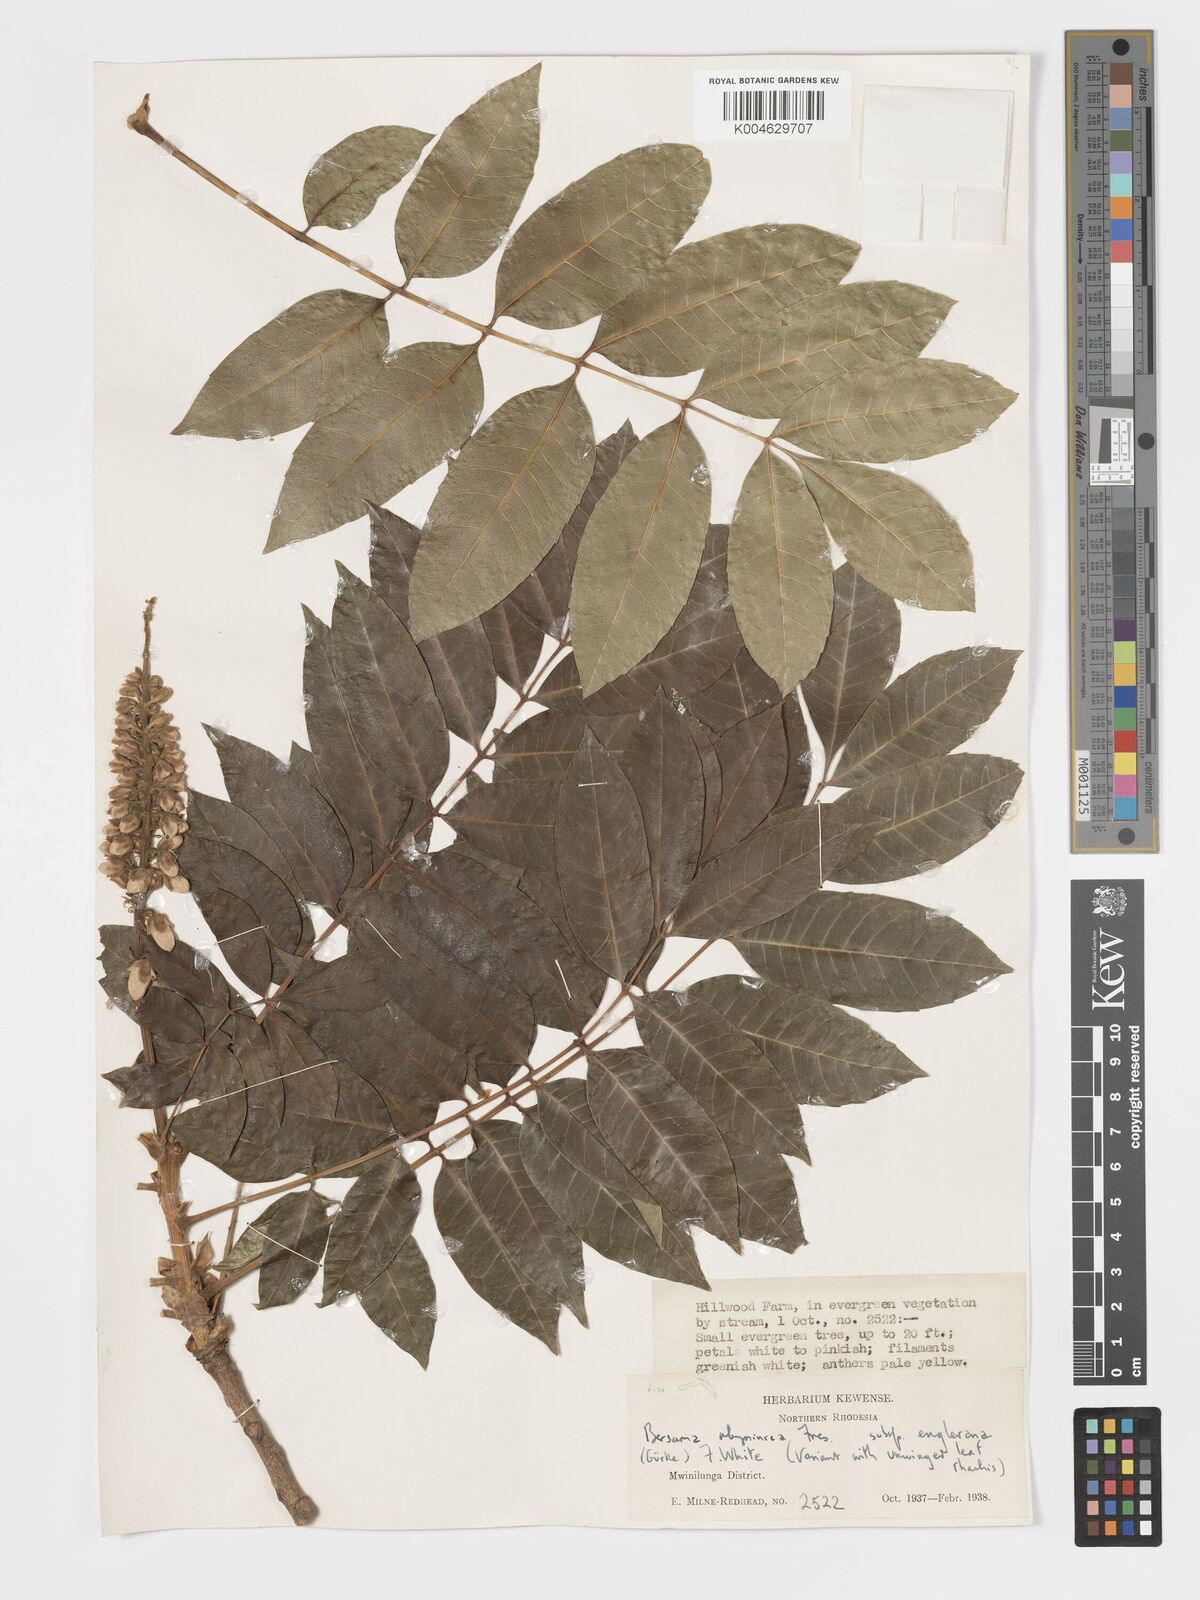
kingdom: Plantae
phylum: Tracheophyta
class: Magnoliopsida
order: Geraniales
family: Melianthaceae
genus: Bersama
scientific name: Bersama abyssinica
